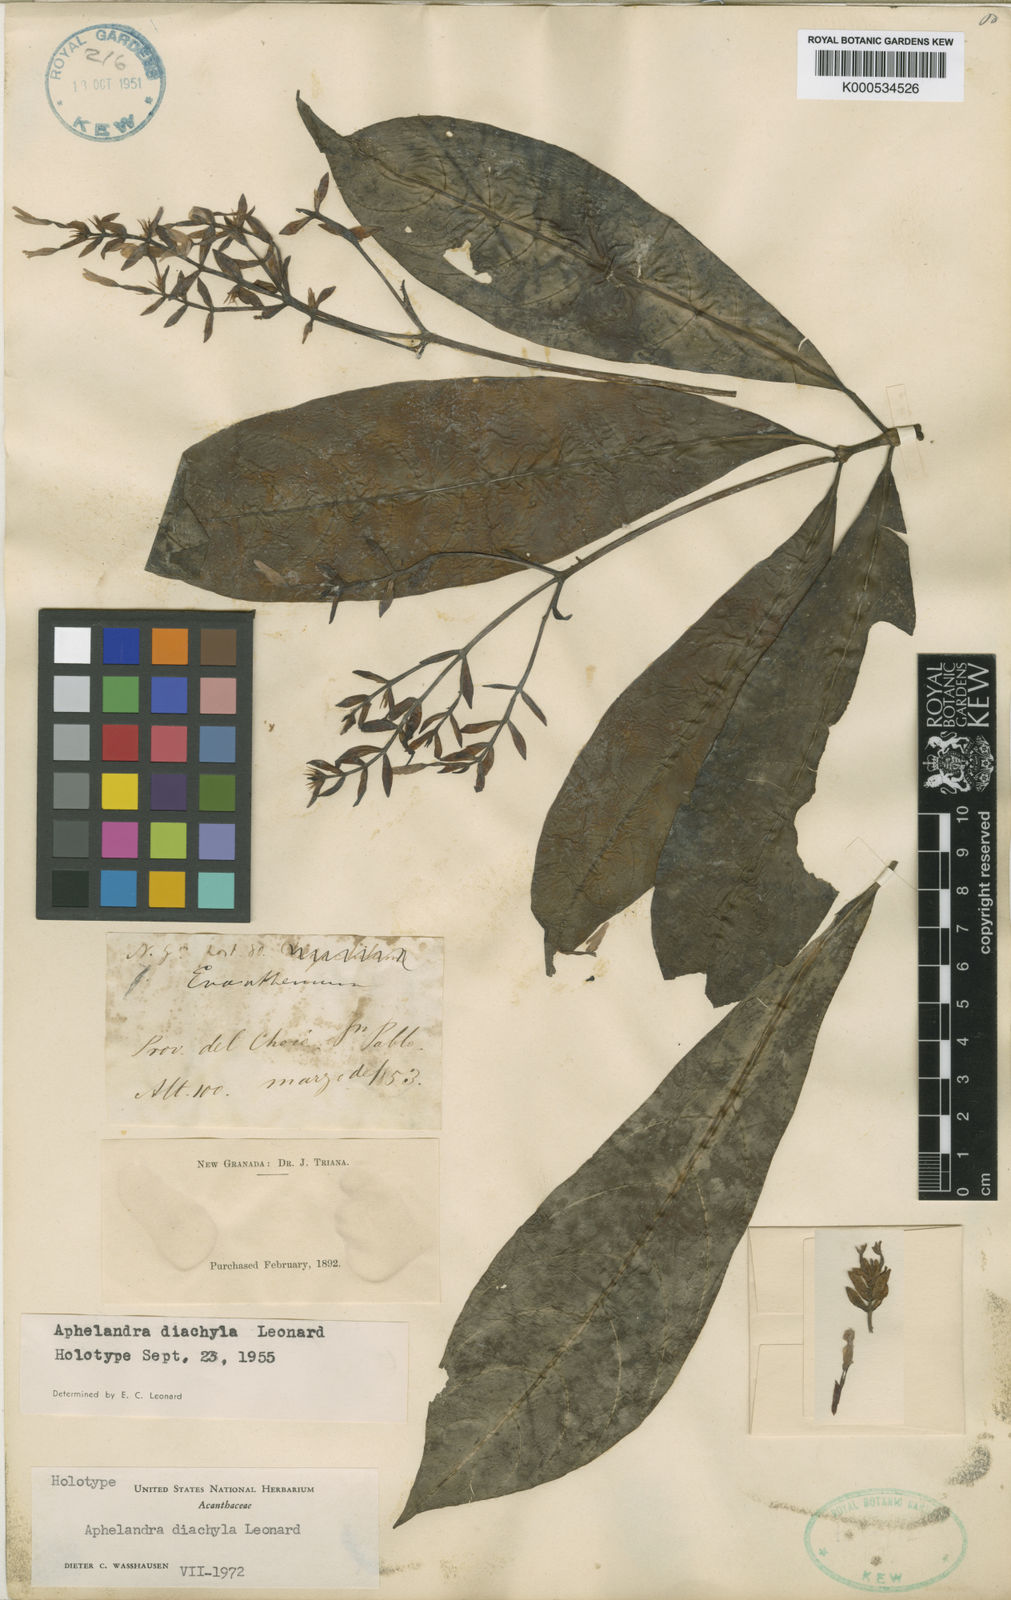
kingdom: Plantae
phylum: Tracheophyta
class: Magnoliopsida
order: Lamiales
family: Acanthaceae
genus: Aphelandra
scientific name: Aphelandra diachyla
